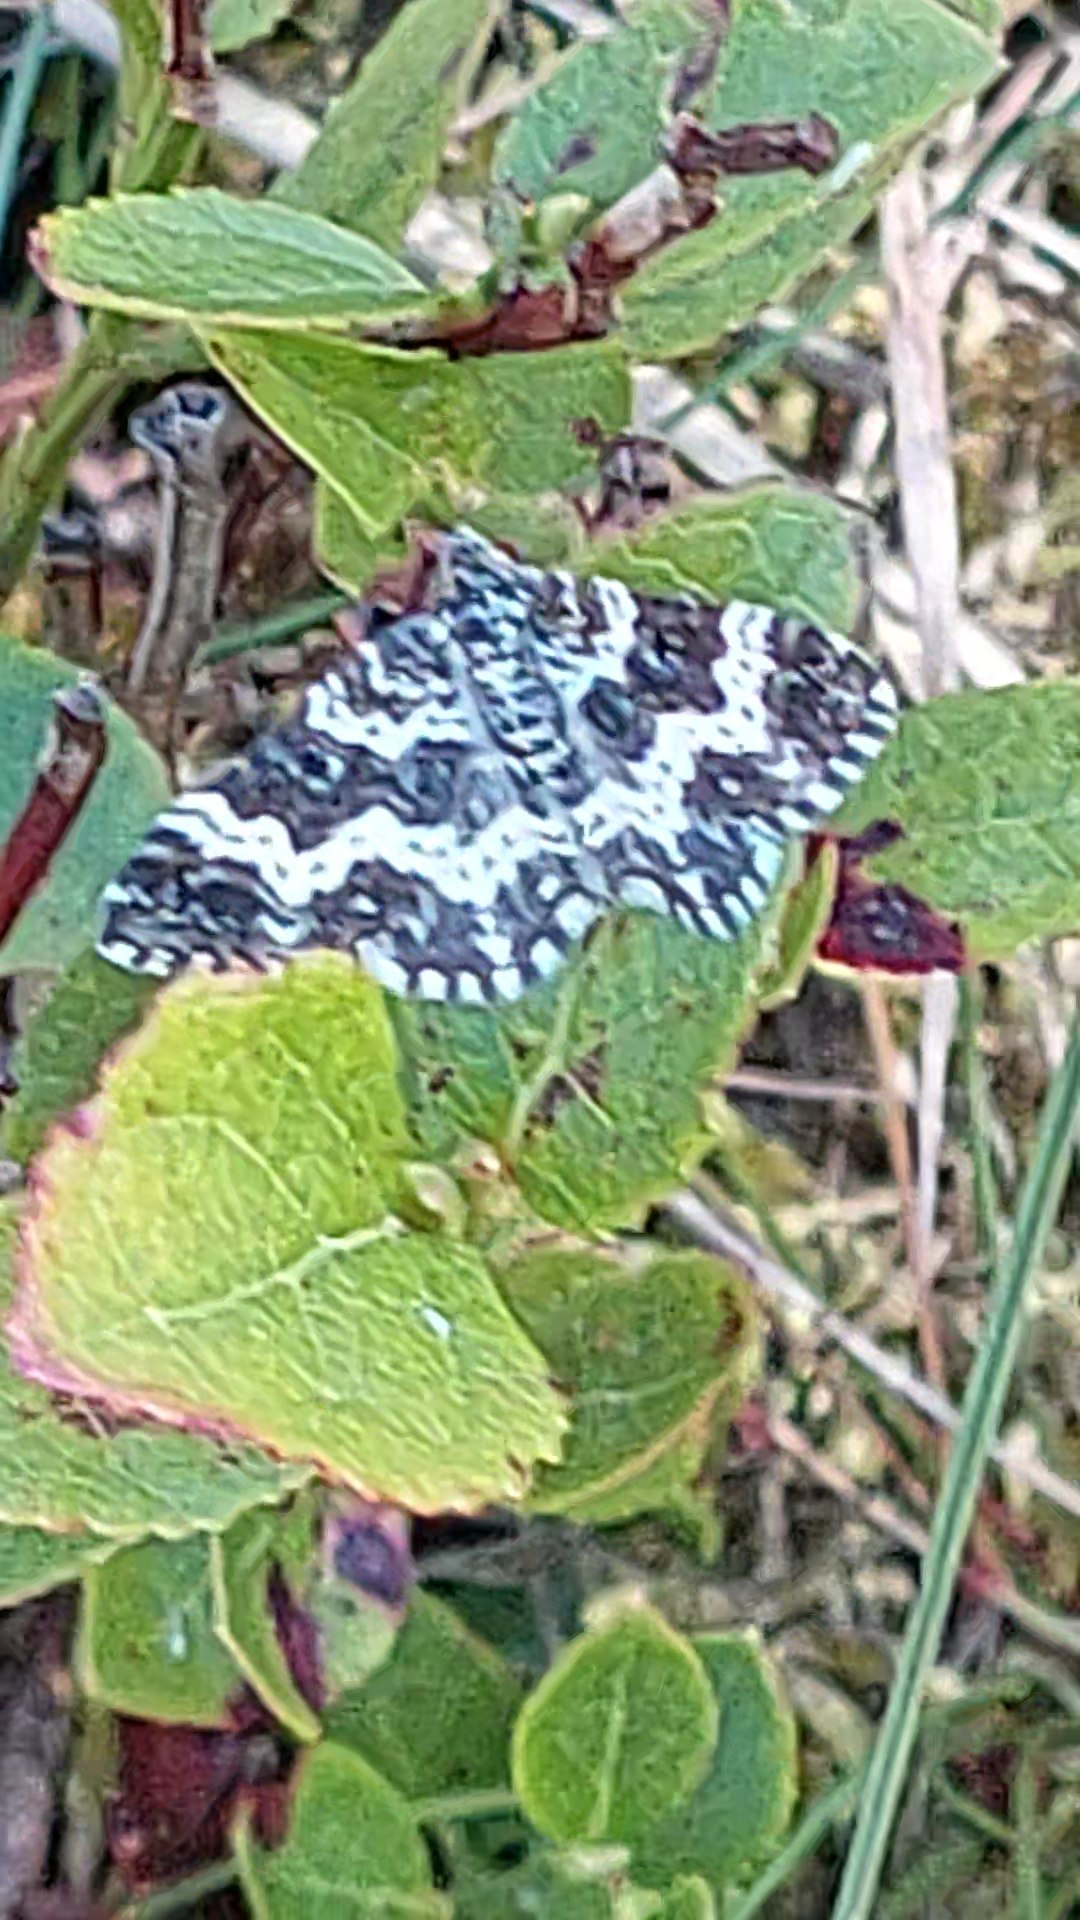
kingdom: Animalia
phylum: Arthropoda
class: Insecta
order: Lepidoptera
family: Geometridae
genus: Epirrhoe
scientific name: Epirrhoe tristata
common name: Sørgesnerremåler
